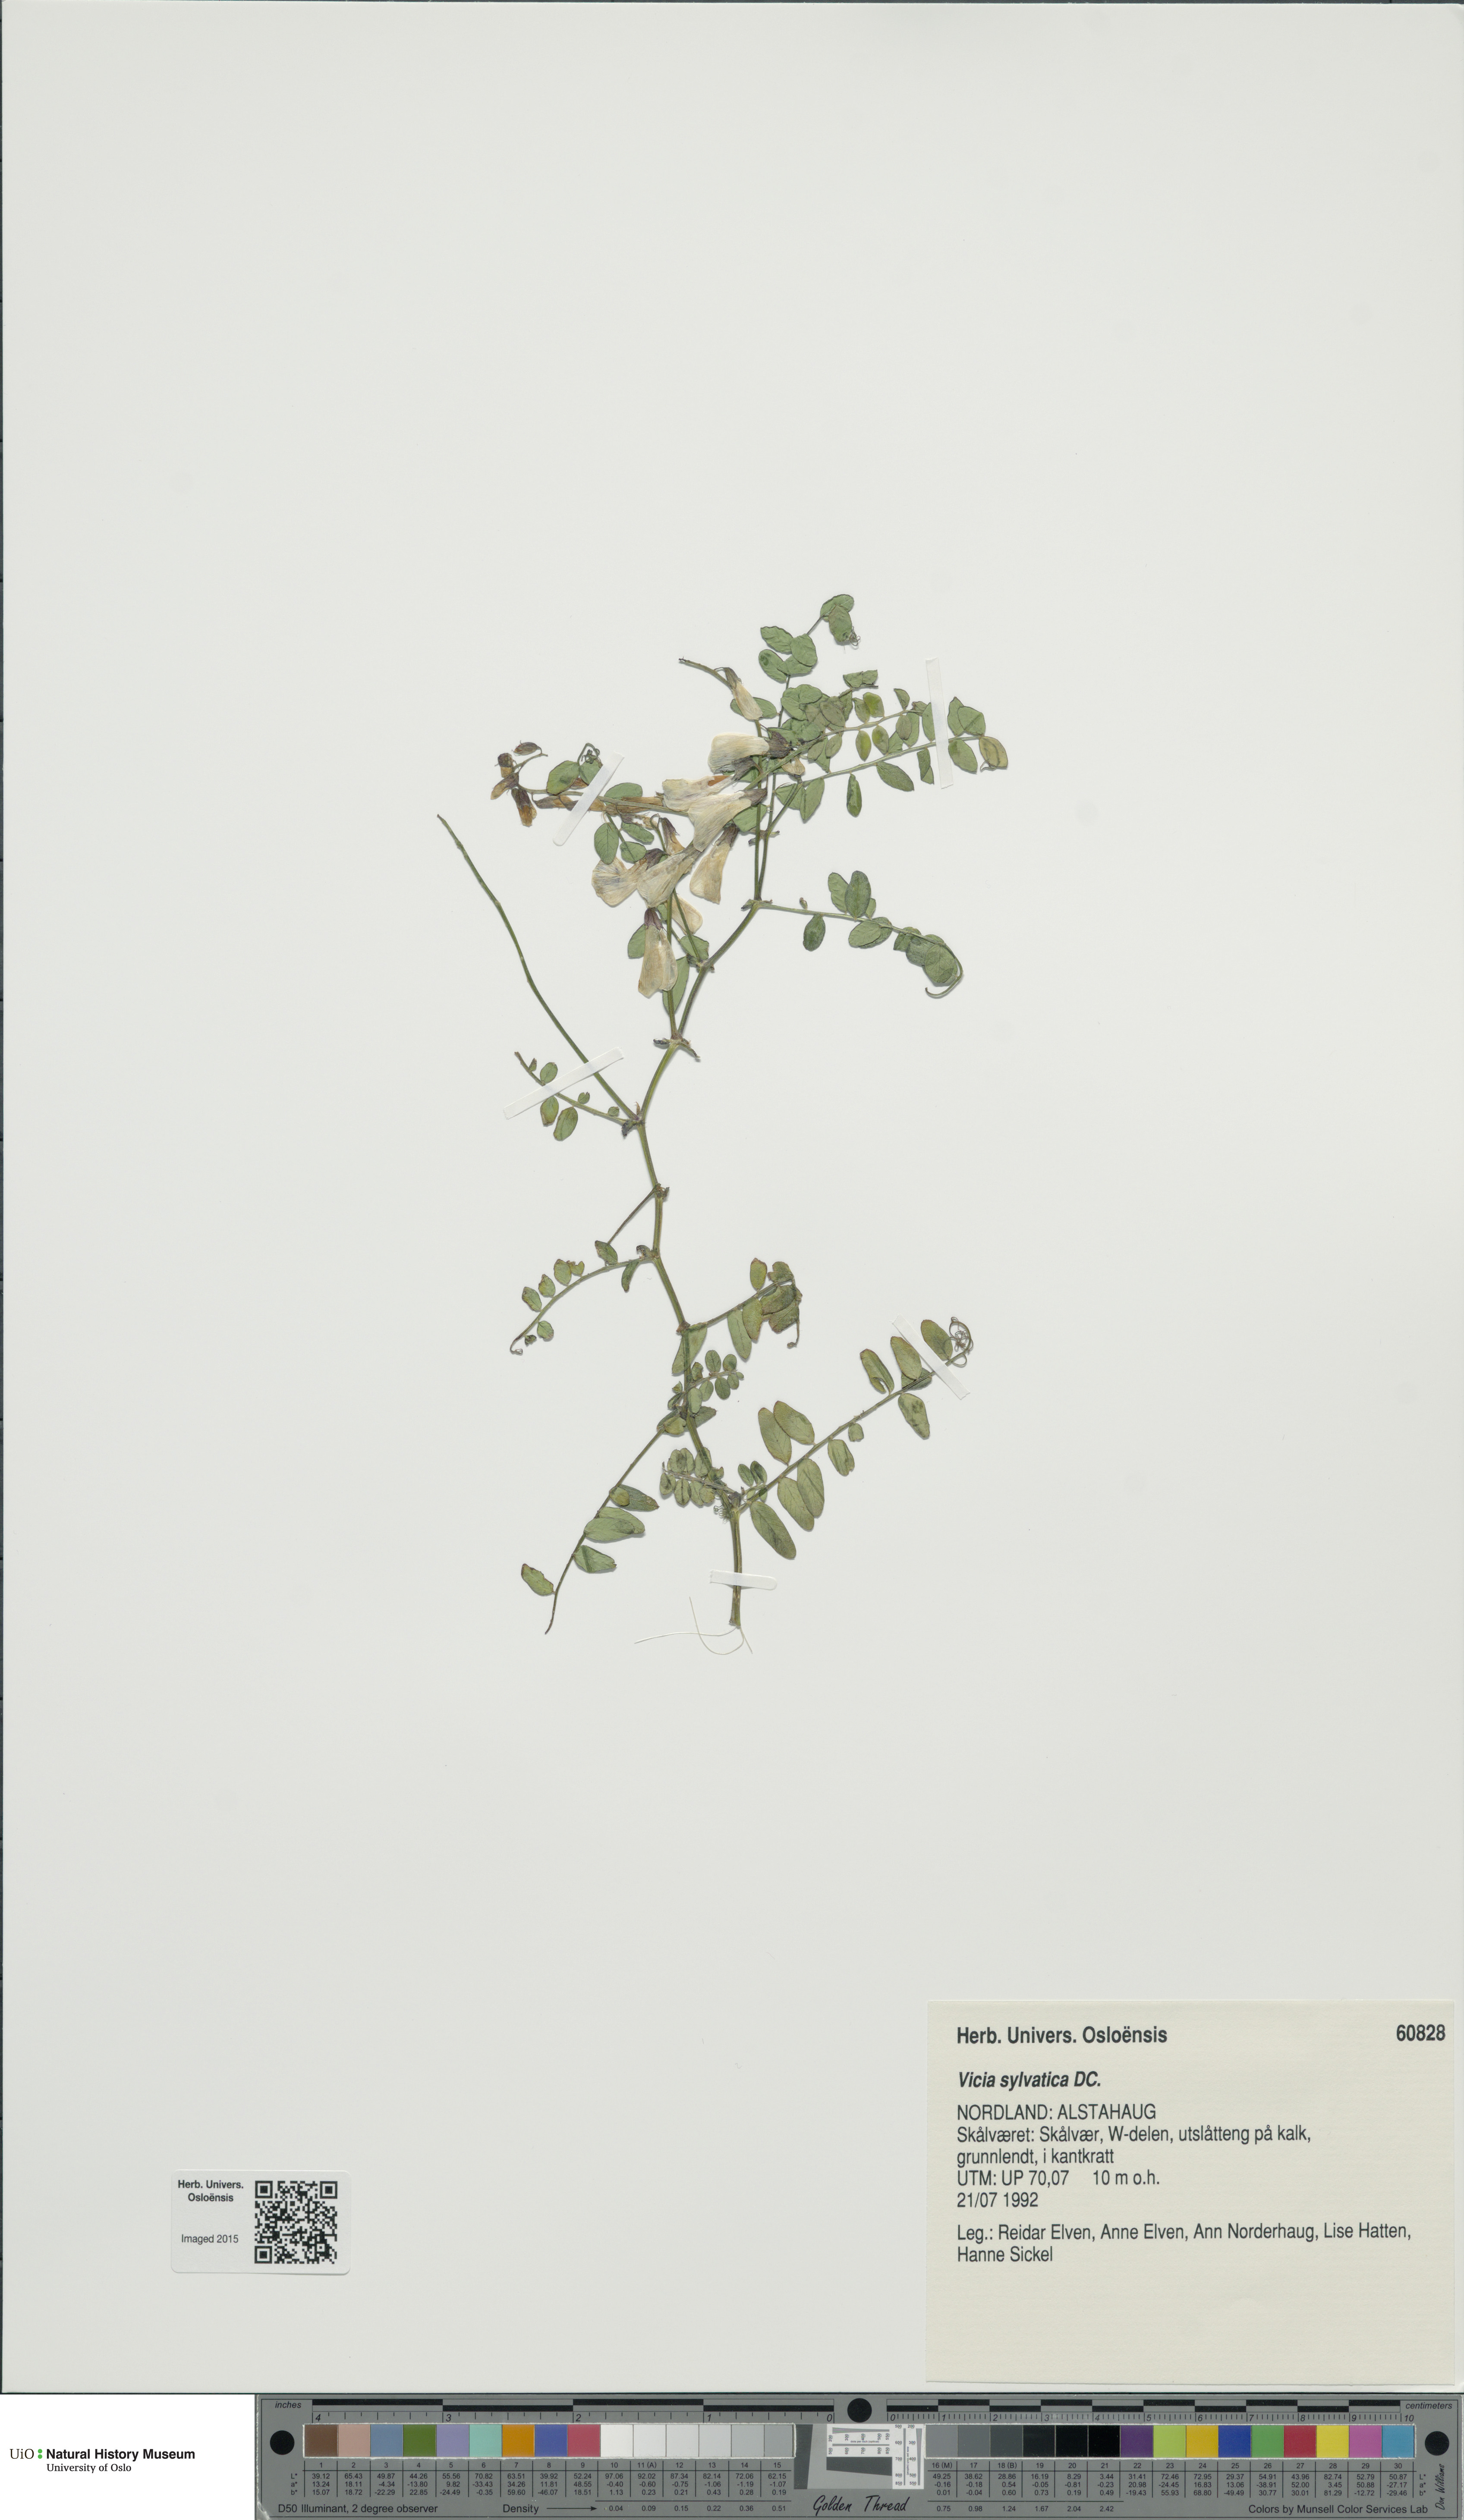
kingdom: Plantae
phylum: Tracheophyta
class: Magnoliopsida
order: Fabales
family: Fabaceae
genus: Vicia
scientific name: Vicia sylvatica
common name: Wood vetch
